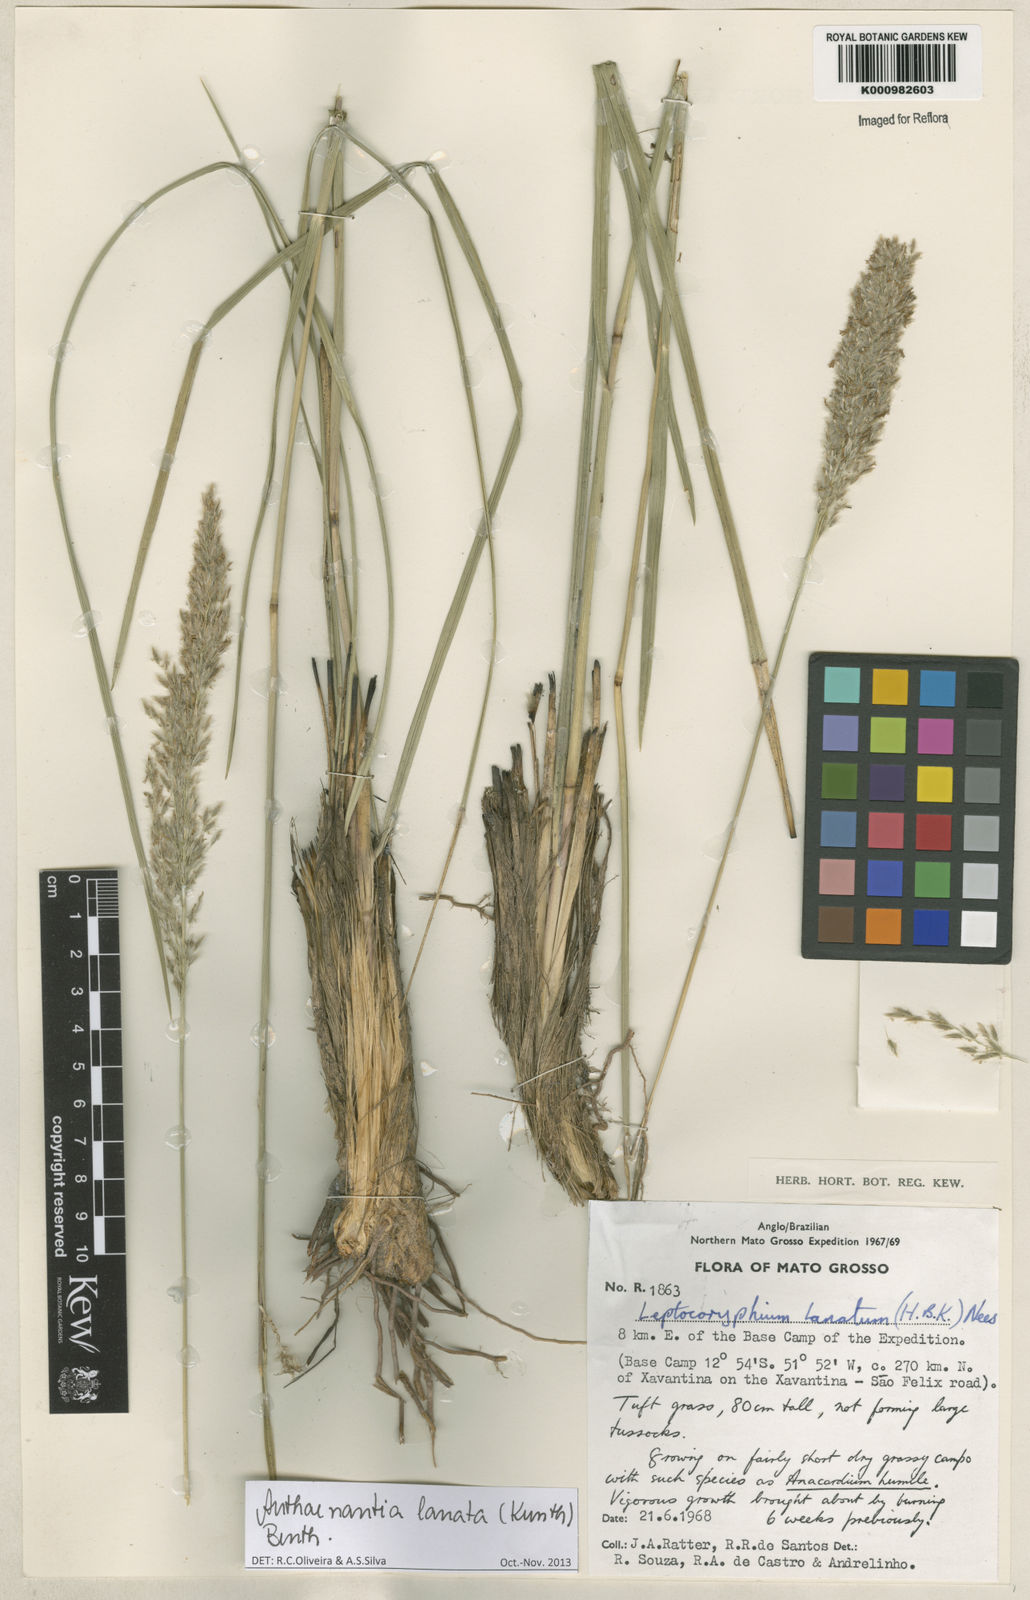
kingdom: Plantae
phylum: Tracheophyta
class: Liliopsida
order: Poales
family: Poaceae
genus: Anthenantia
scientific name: Anthenantia lanata
